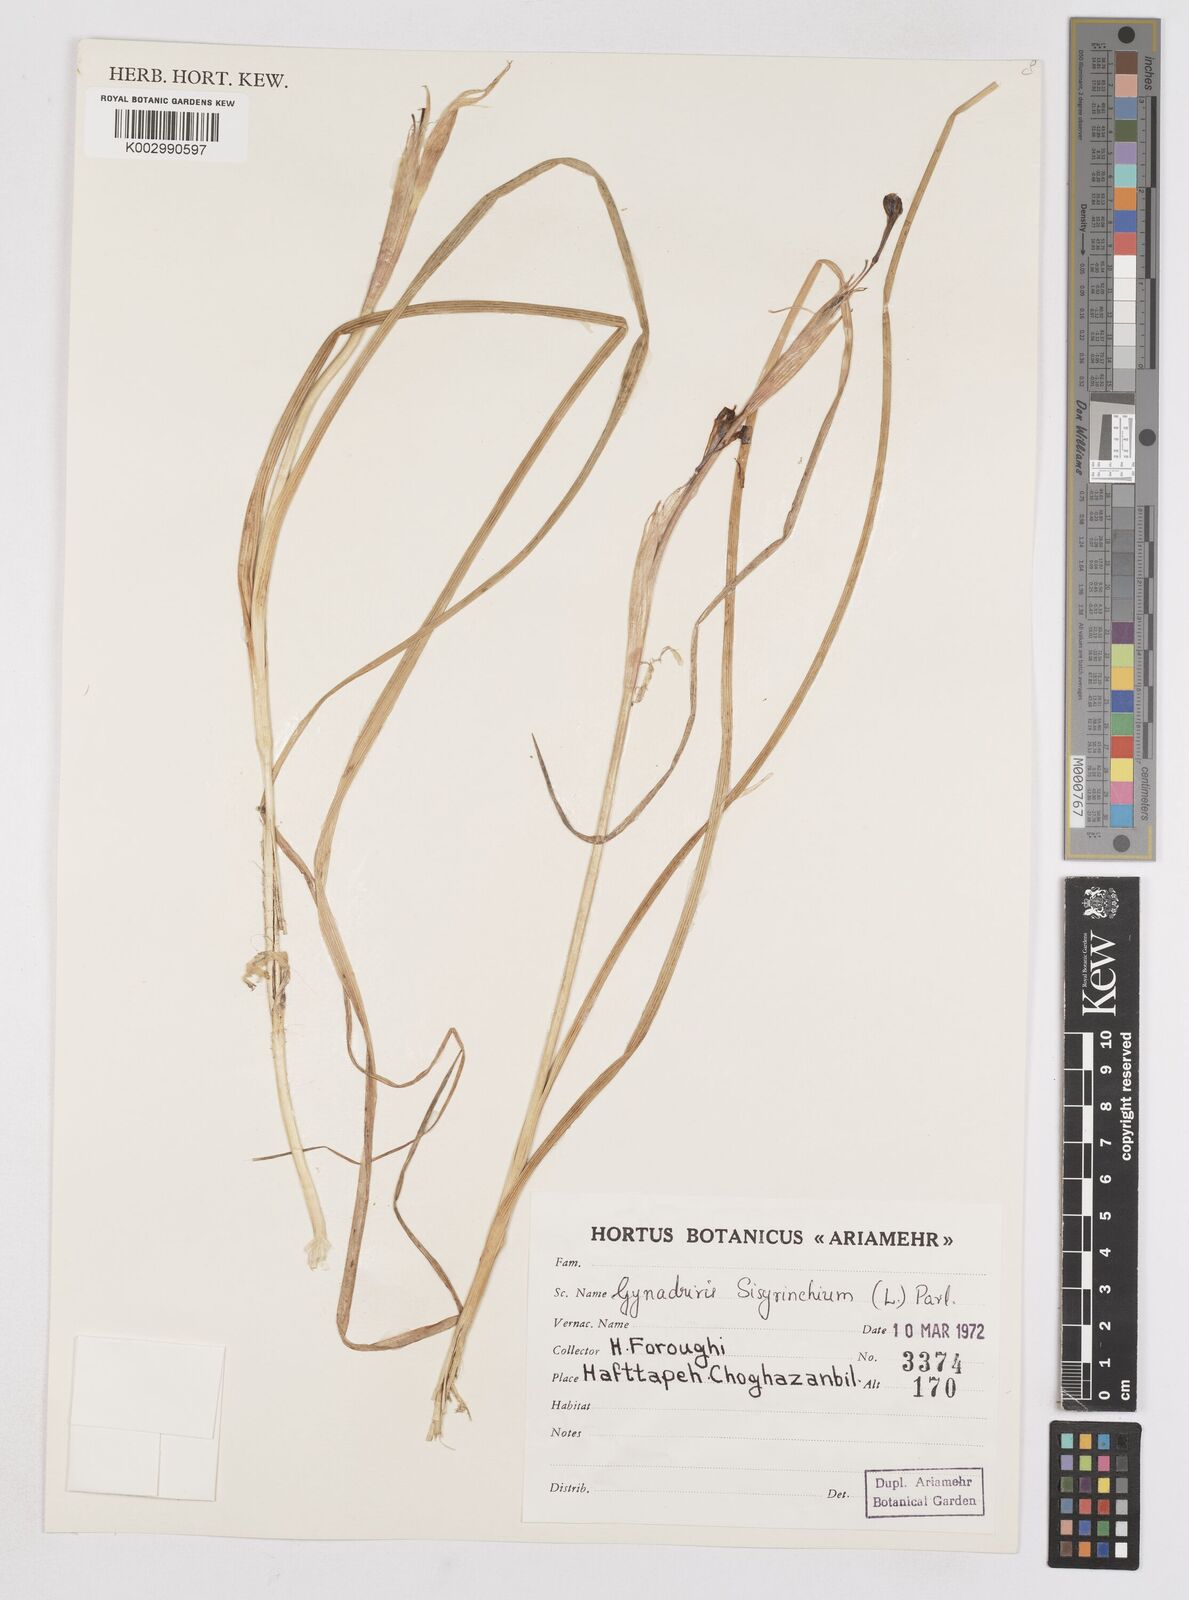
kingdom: Plantae
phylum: Tracheophyta
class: Liliopsida
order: Asparagales
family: Iridaceae
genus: Moraea
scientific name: Moraea sisyrinchium
